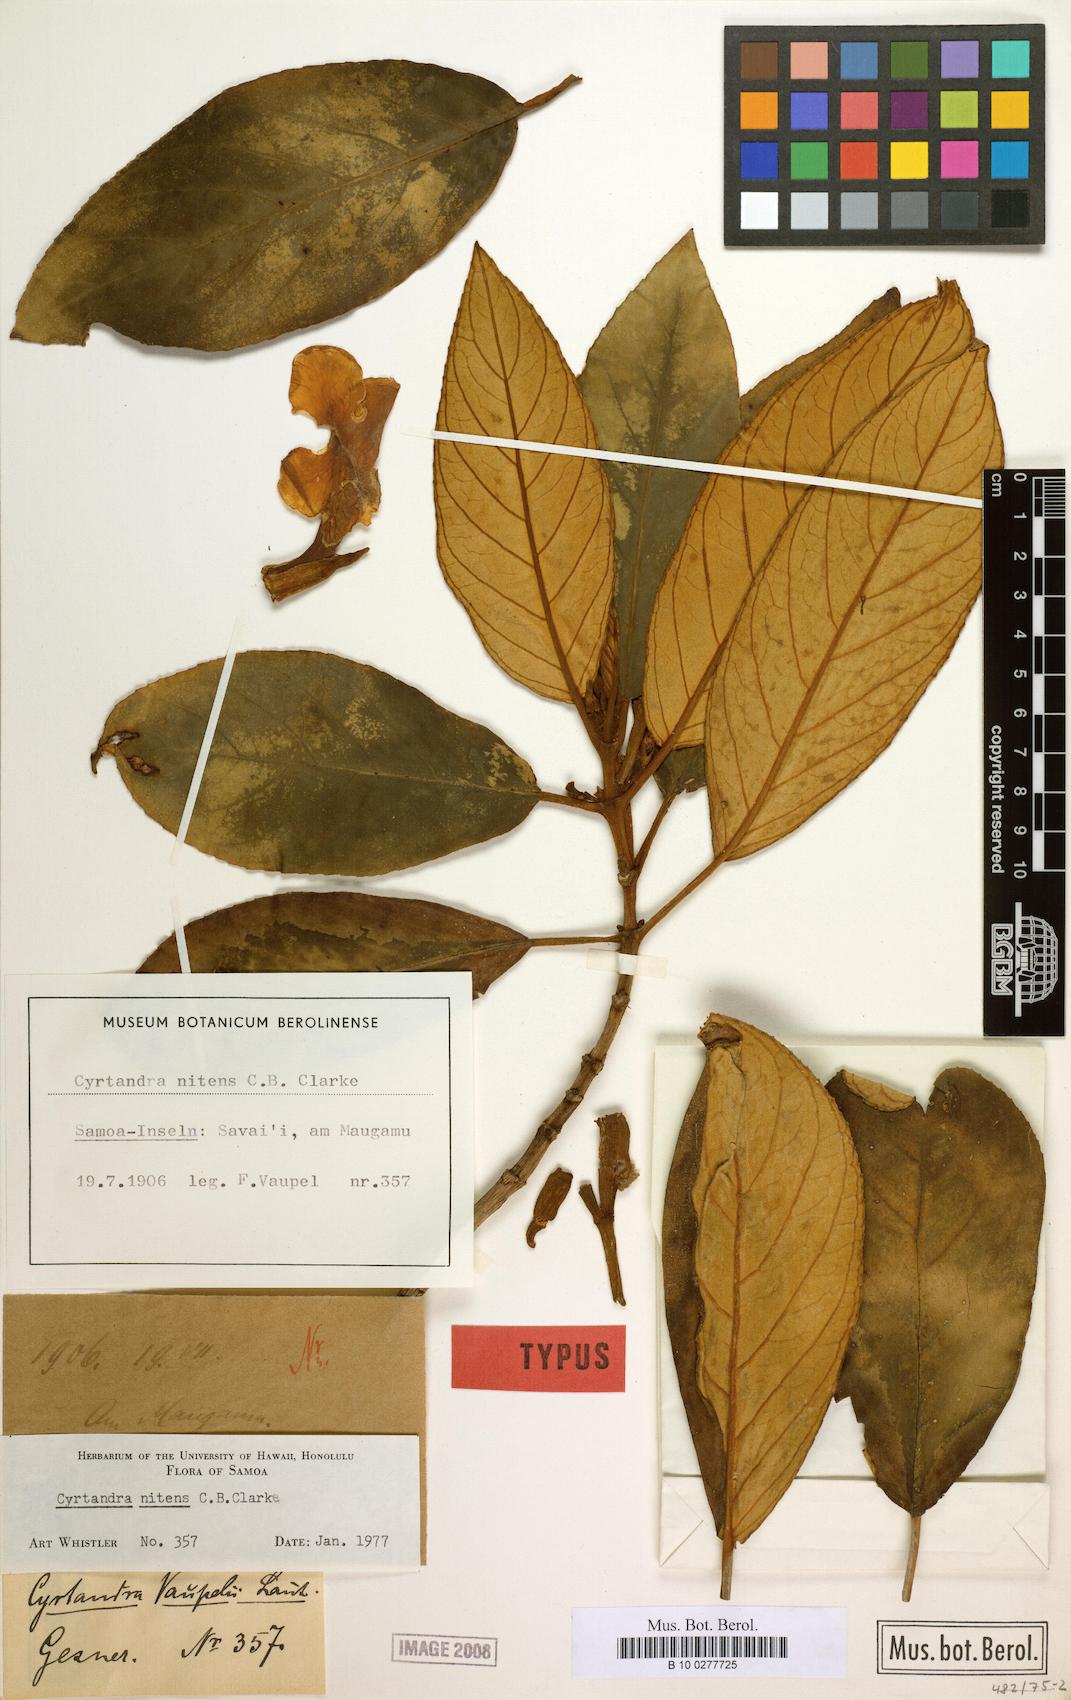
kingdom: Plantae
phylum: Tracheophyta
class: Magnoliopsida
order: Lamiales
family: Gesneriaceae
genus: Cyrtandra
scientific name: Cyrtandra nitens
